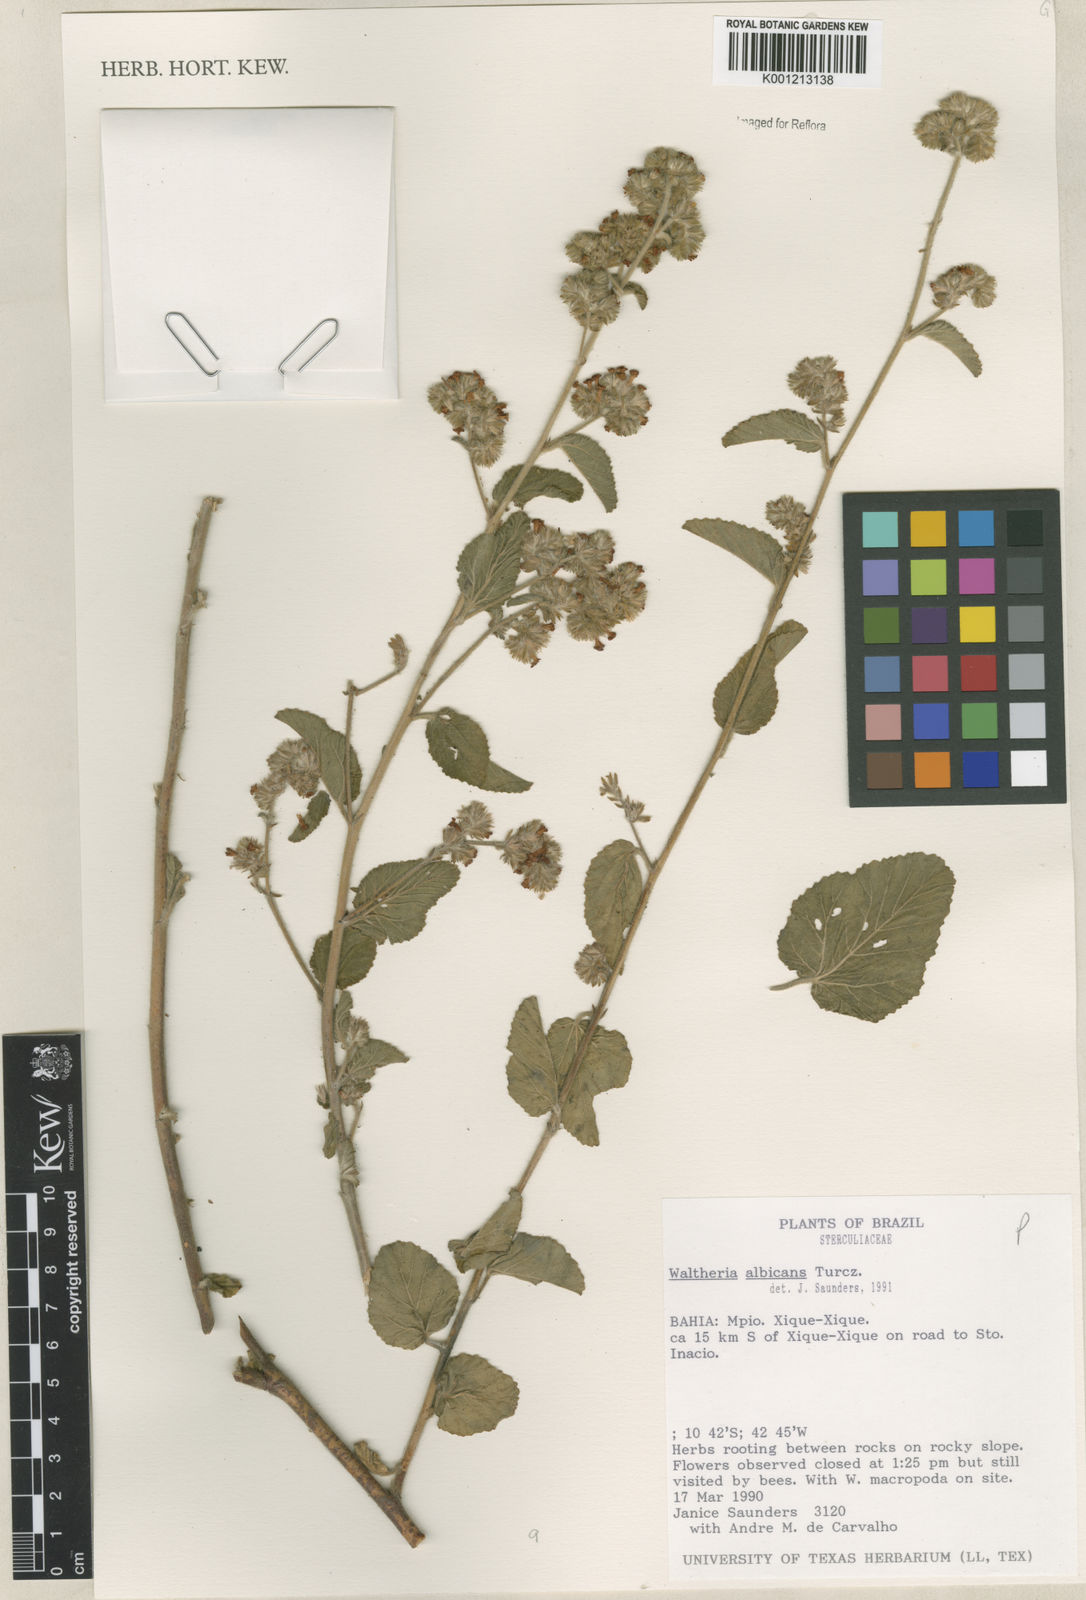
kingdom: Plantae
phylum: Tracheophyta
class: Magnoliopsida
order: Malvales
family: Malvaceae
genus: Waltheria
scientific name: Waltheria albicans
